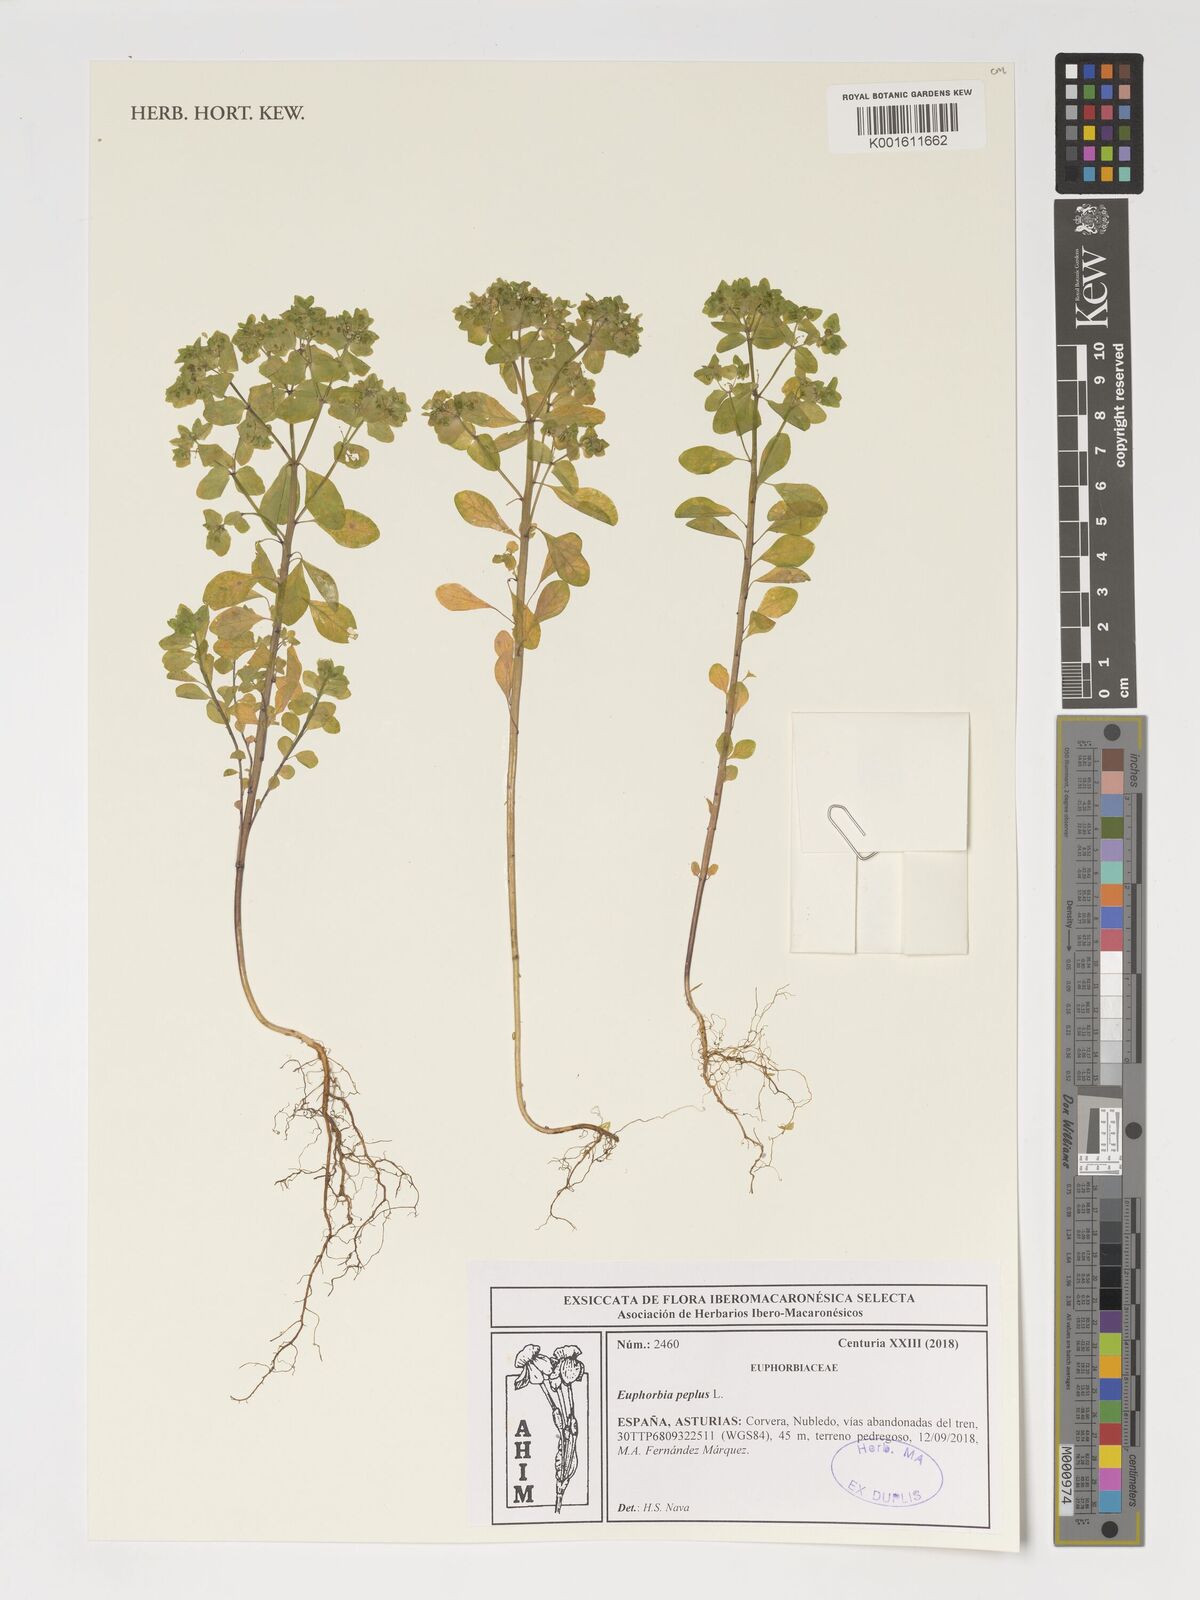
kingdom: Plantae
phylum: Tracheophyta
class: Magnoliopsida
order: Malpighiales
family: Euphorbiaceae
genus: Euphorbia
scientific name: Euphorbia peplus
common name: Petty spurge
